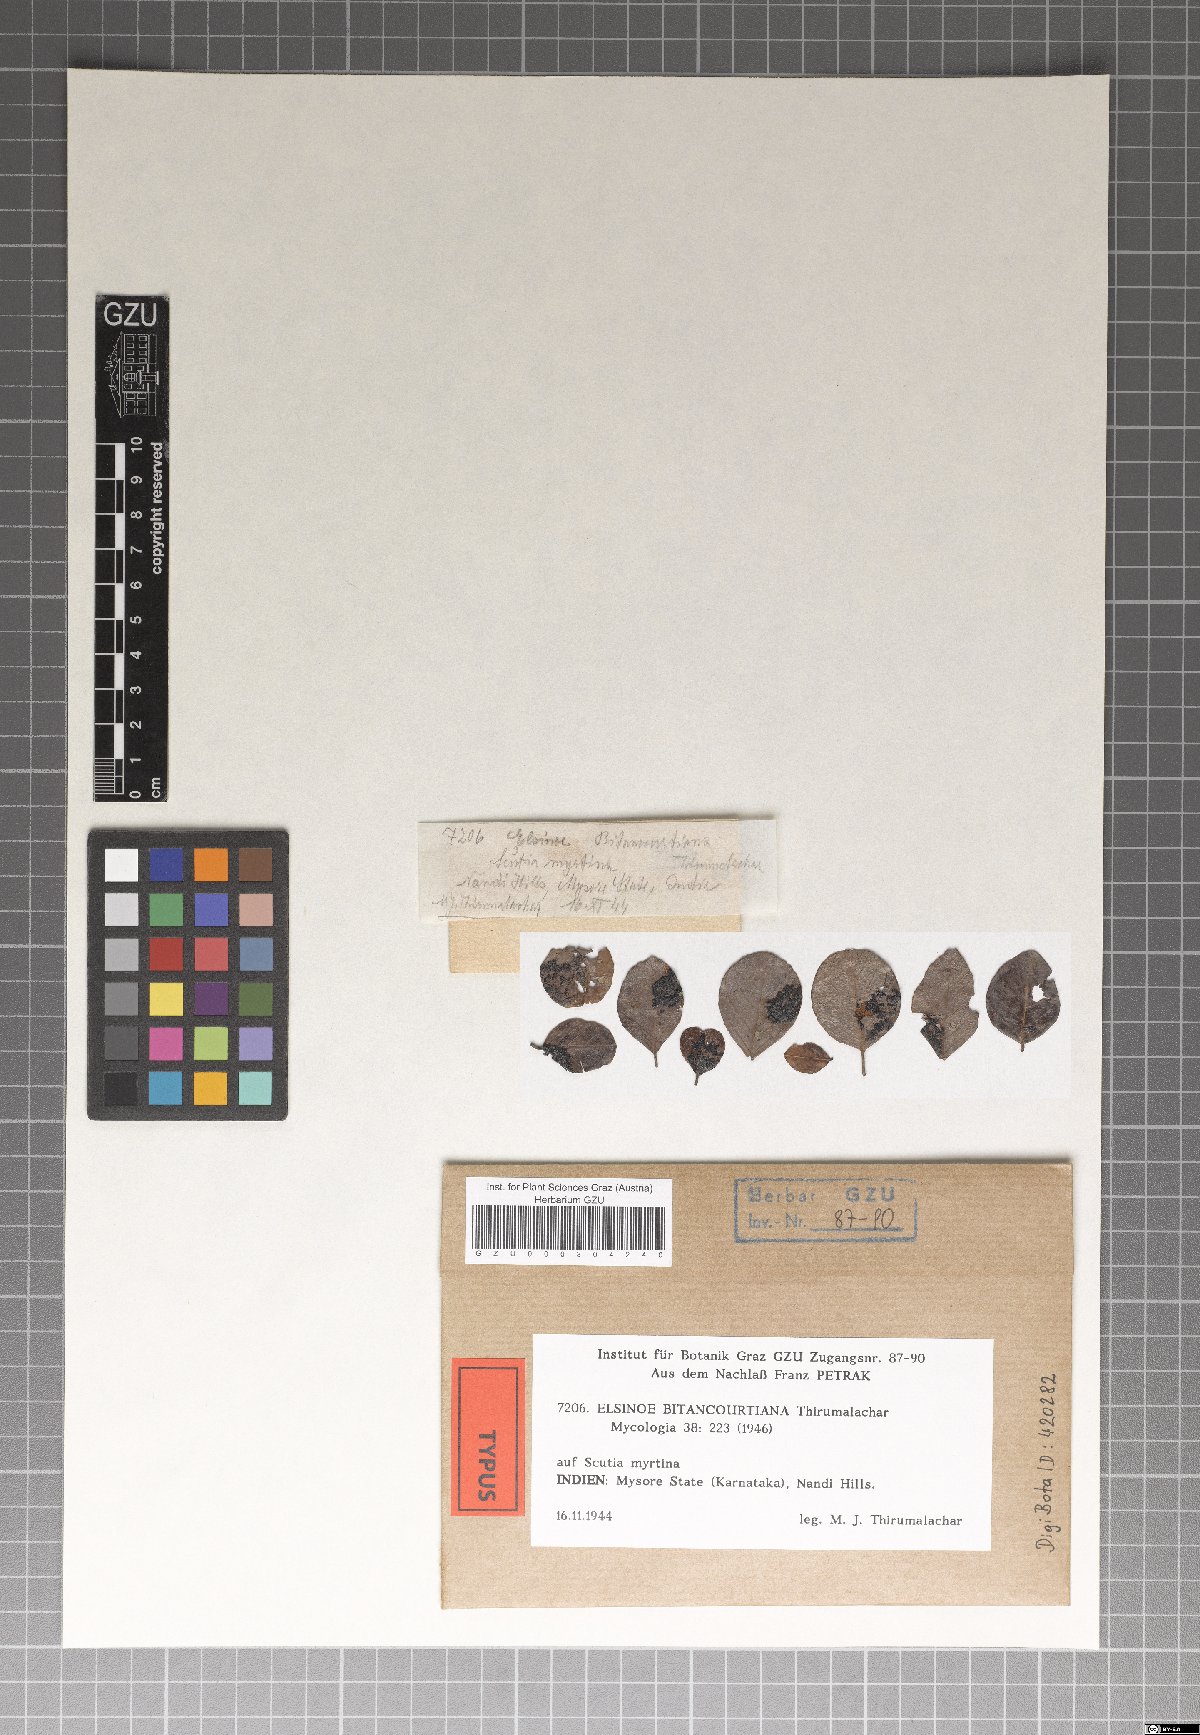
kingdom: Fungi
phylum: Ascomycota
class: Dothideomycetes
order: Myriangiales
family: Elsinoaceae
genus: Elsinoe
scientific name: Elsinoe bitancourtiana
